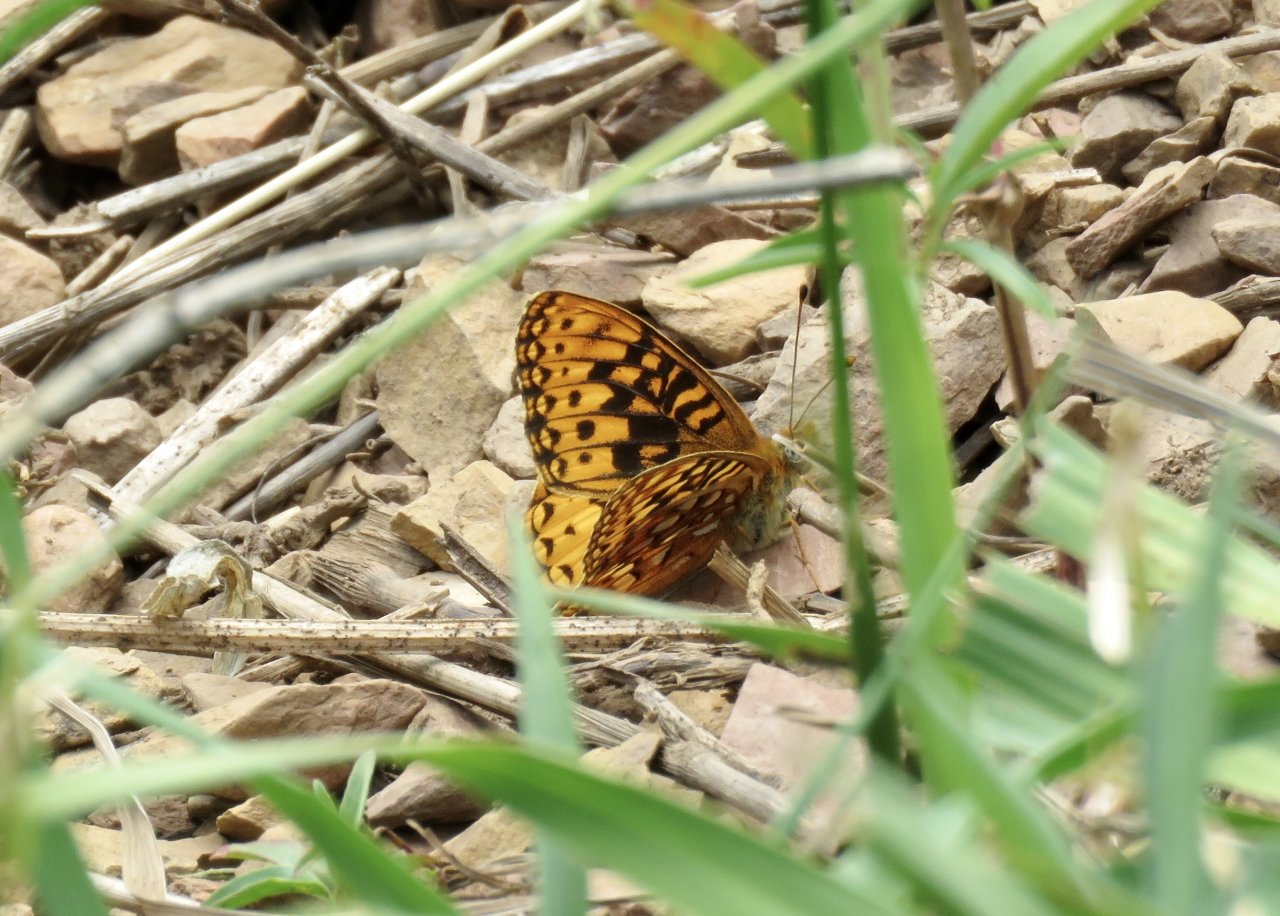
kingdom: Animalia
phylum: Arthropoda
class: Insecta
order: Lepidoptera
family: Nymphalidae
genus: Speyeria
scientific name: Speyeria atlantis
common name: Northwestern Fritillary
